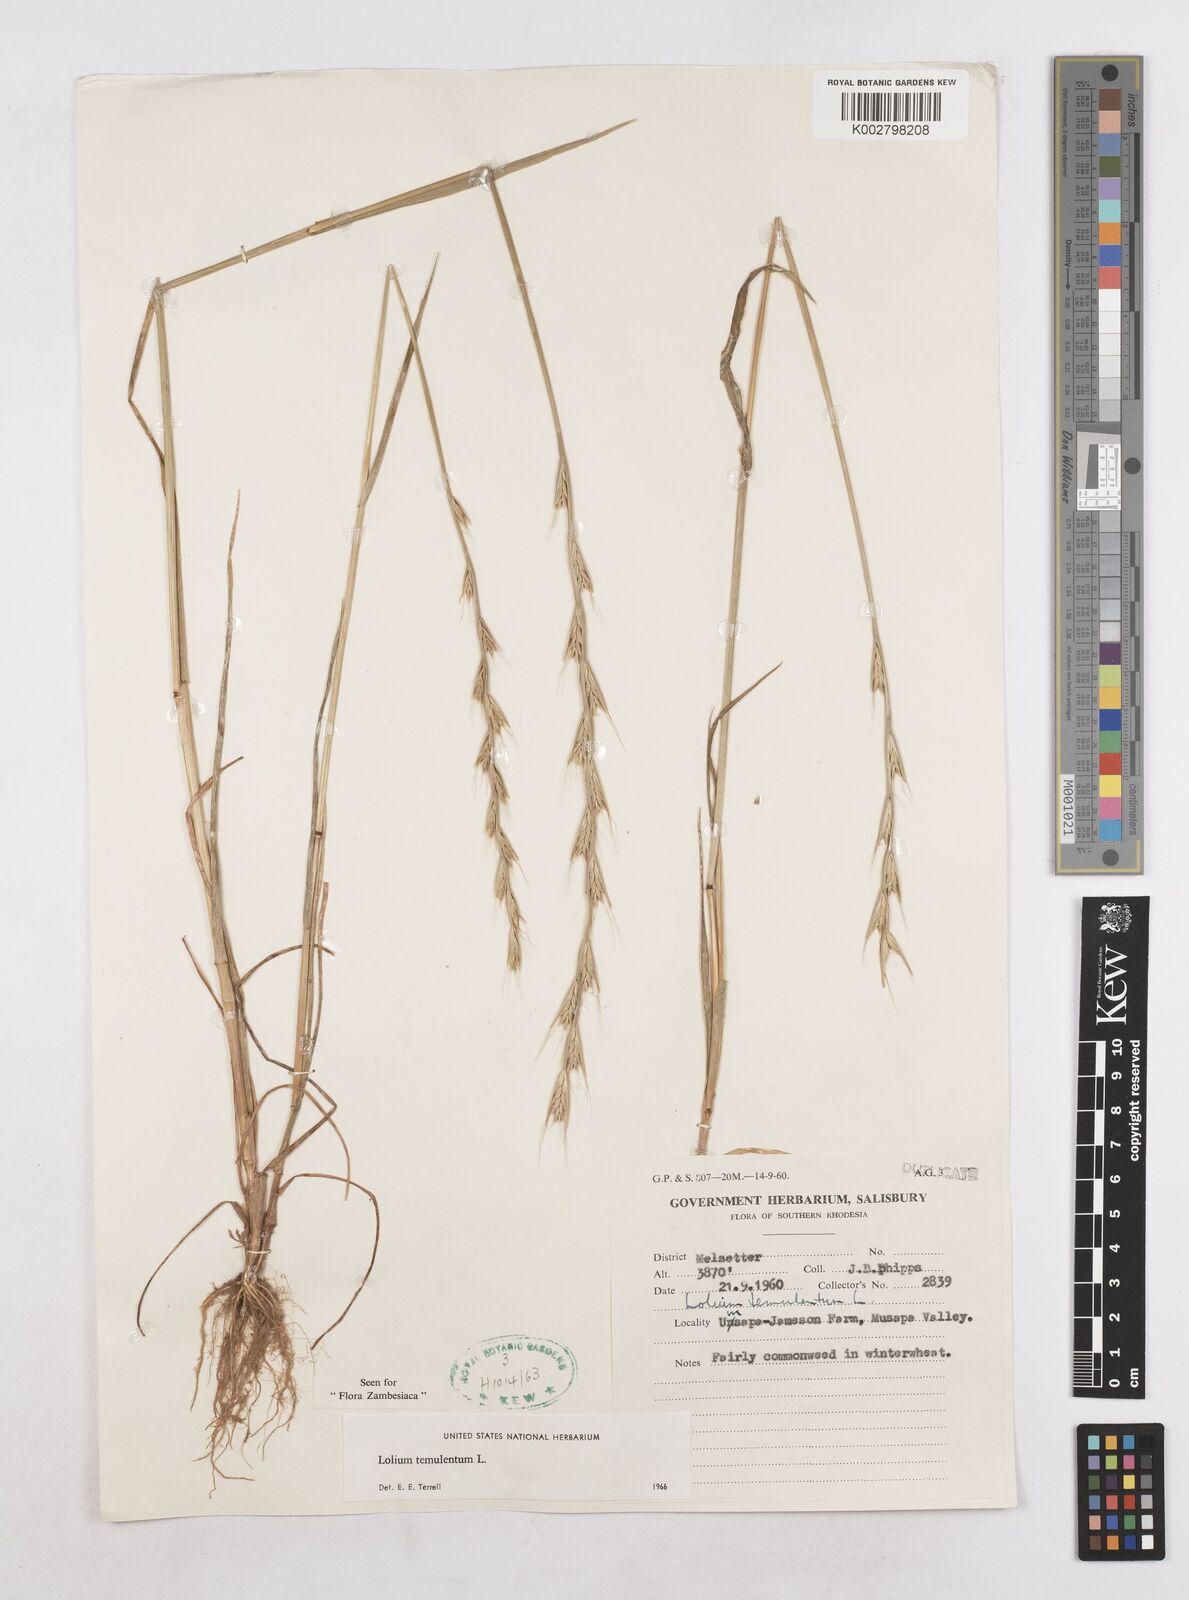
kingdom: Plantae
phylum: Tracheophyta
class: Liliopsida
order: Poales
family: Poaceae
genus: Lolium
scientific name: Lolium temulentum
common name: Darnel
